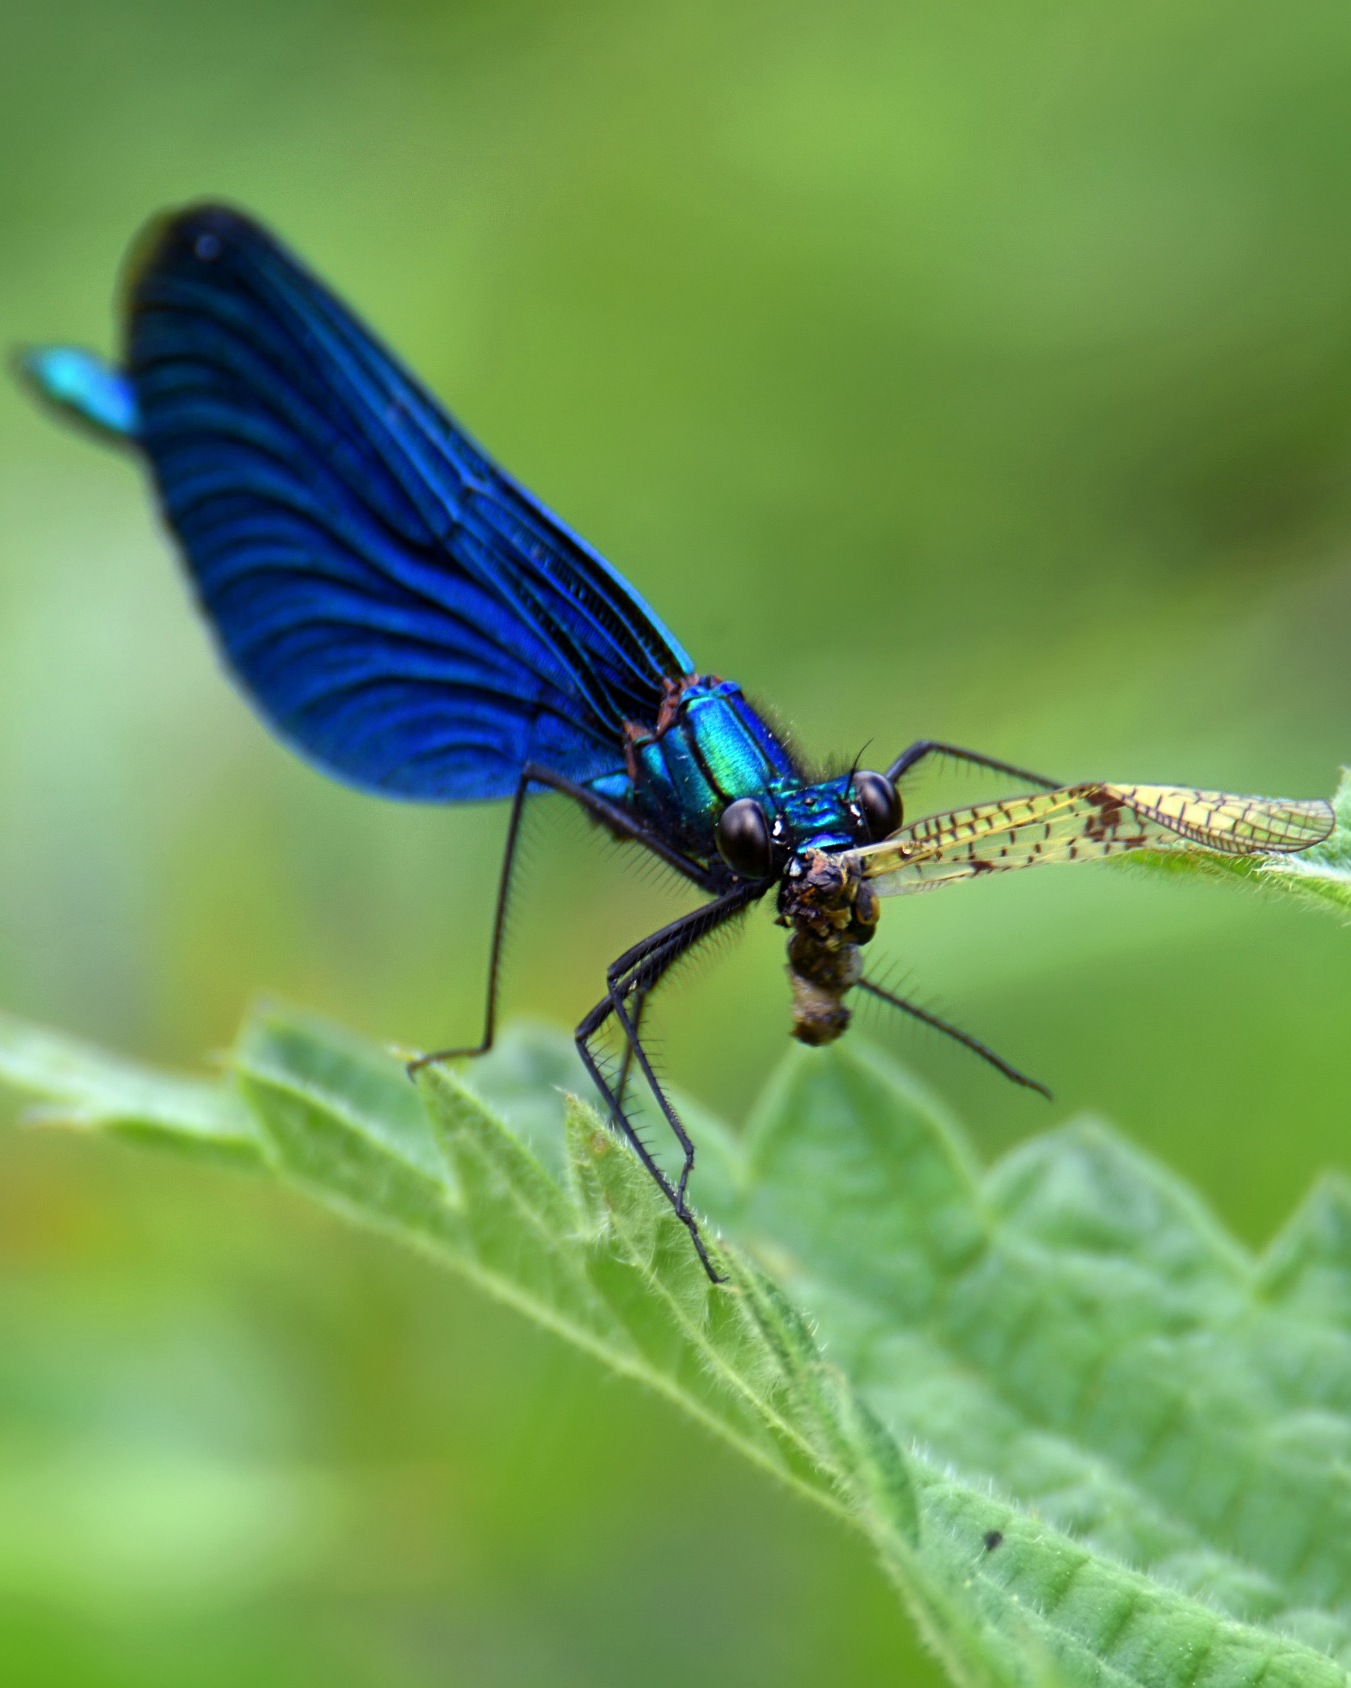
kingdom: Animalia
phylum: Arthropoda
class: Insecta
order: Odonata
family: Calopterygidae
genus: Calopteryx
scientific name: Calopteryx virgo
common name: Blåvinget pragtvandnymfe
